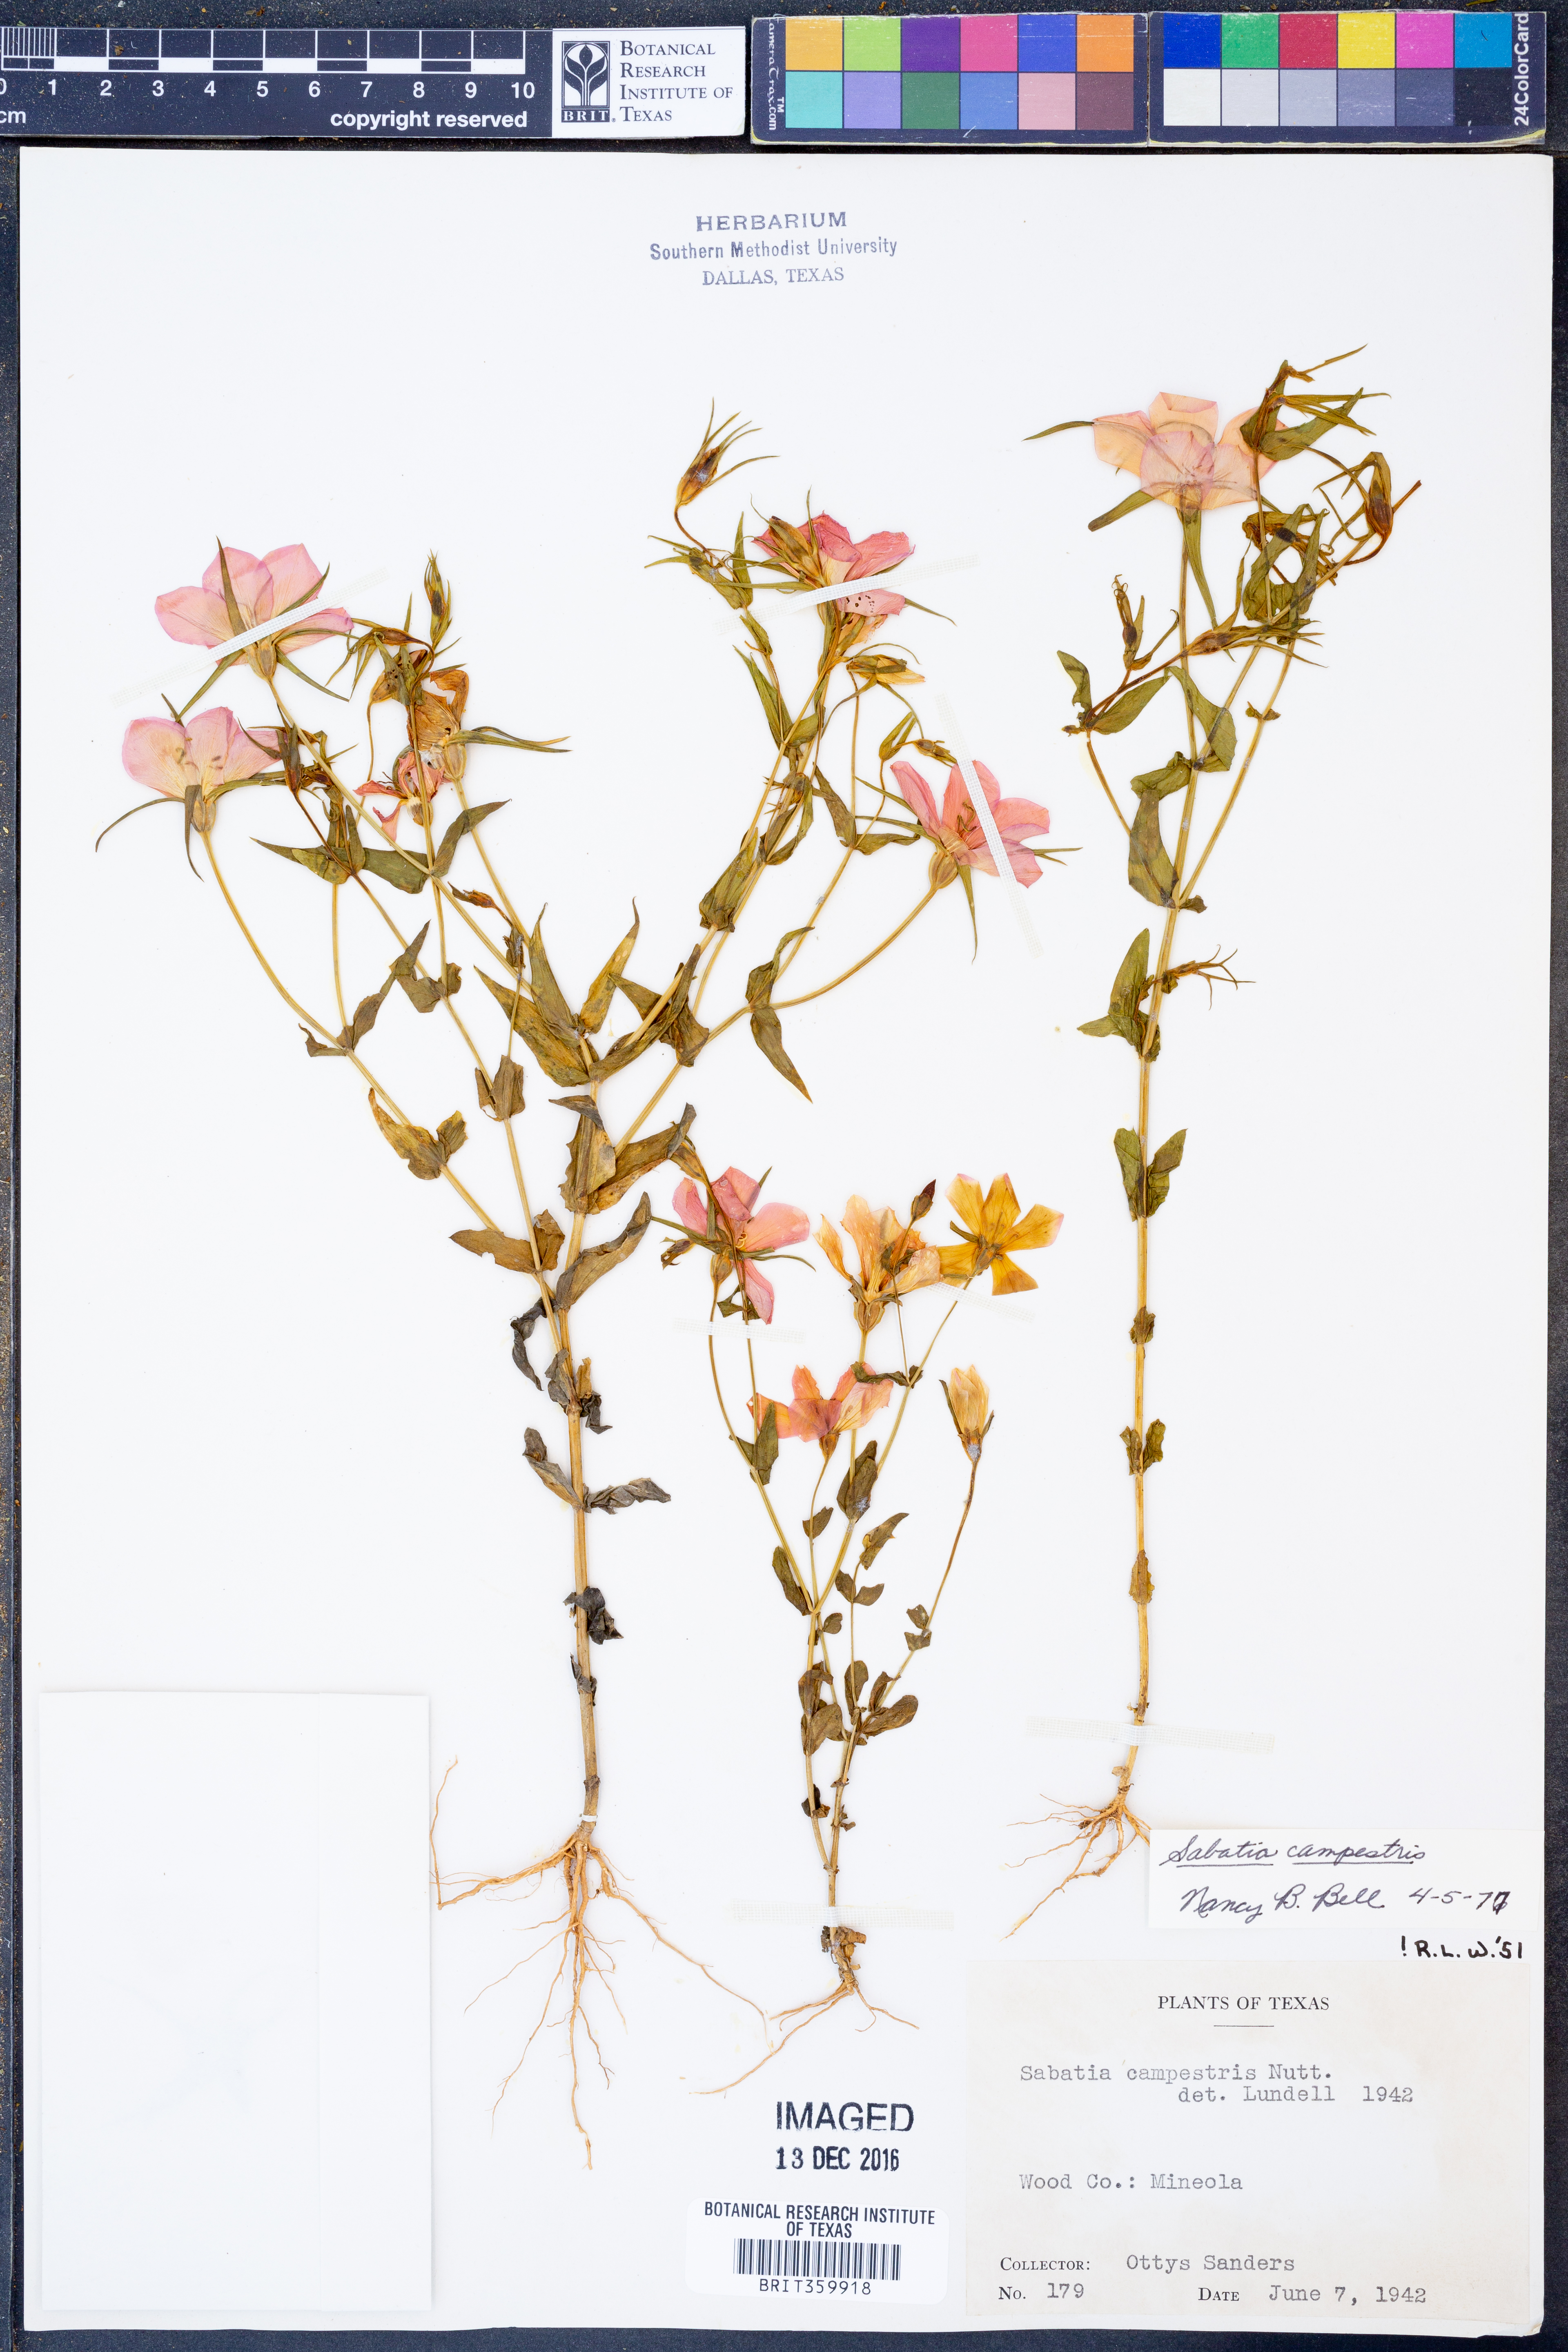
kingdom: Plantae
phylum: Tracheophyta
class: Magnoliopsida
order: Gentianales
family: Gentianaceae
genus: Sabatia
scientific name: Sabatia campestris
